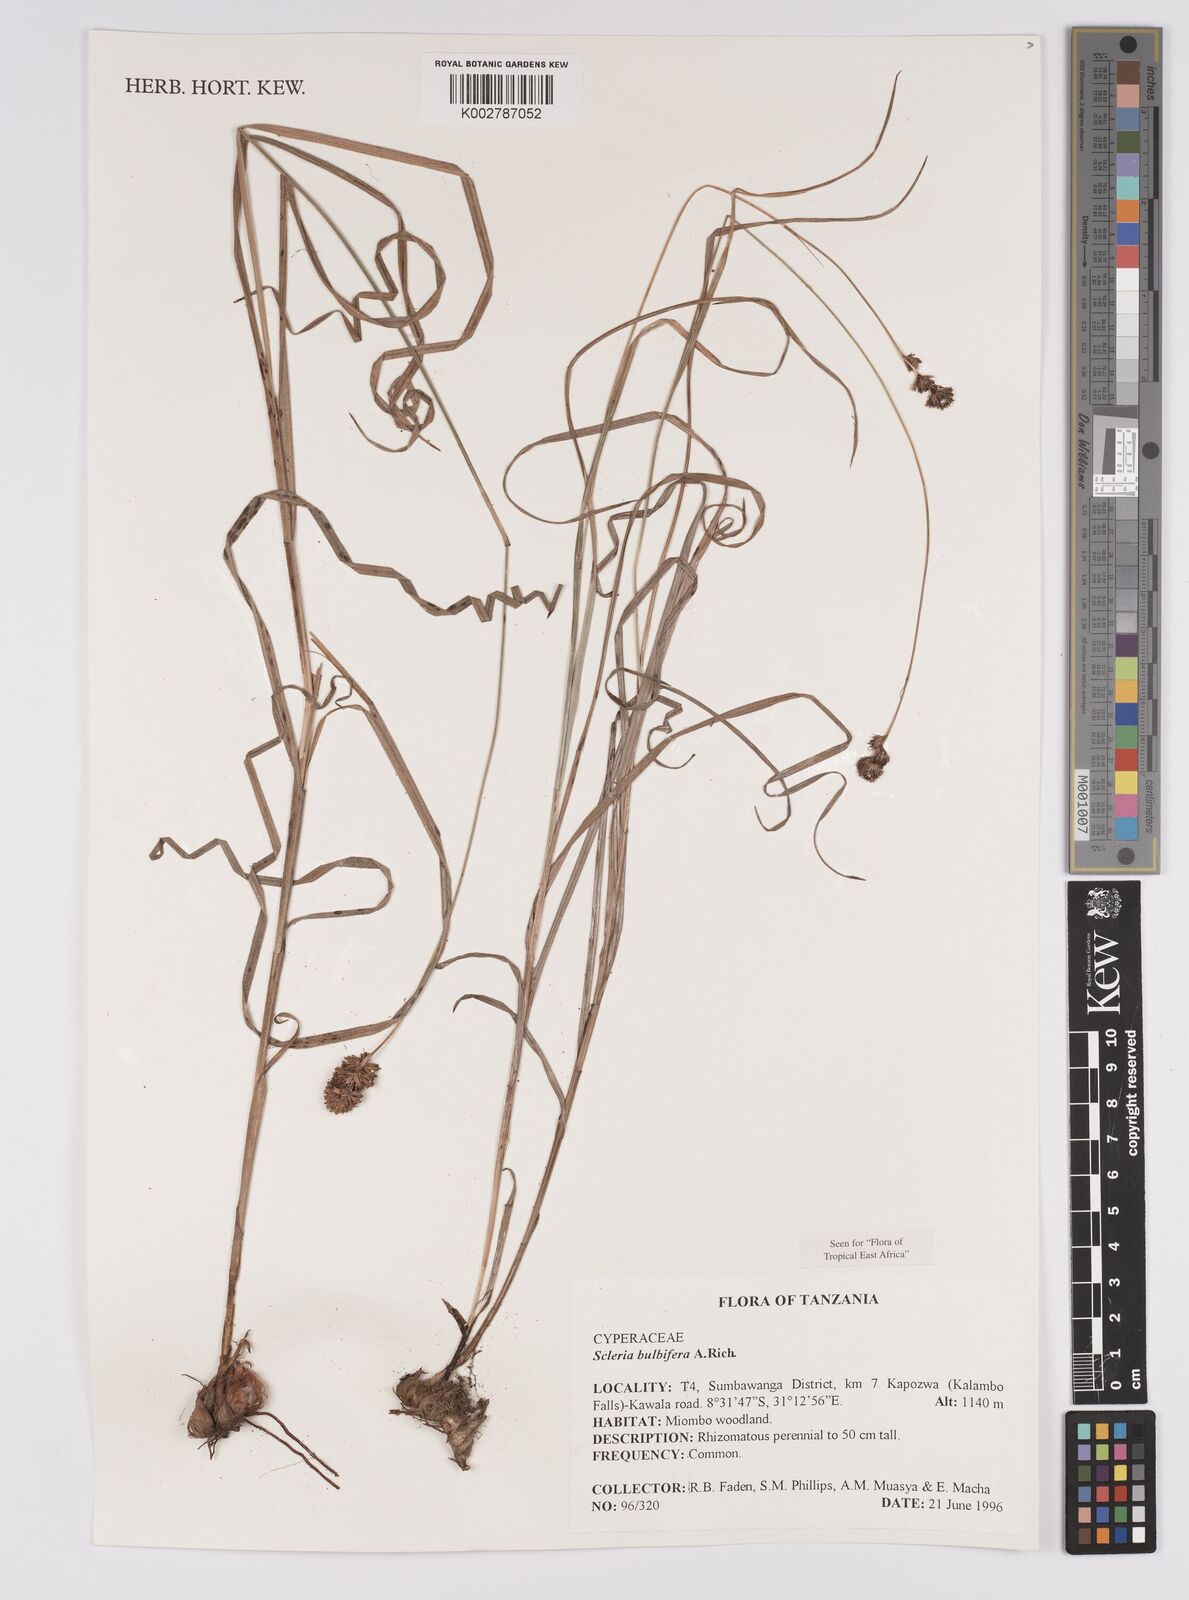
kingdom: Plantae
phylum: Tracheophyta
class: Liliopsida
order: Poales
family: Cyperaceae
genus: Scleria
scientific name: Scleria bulbifera
